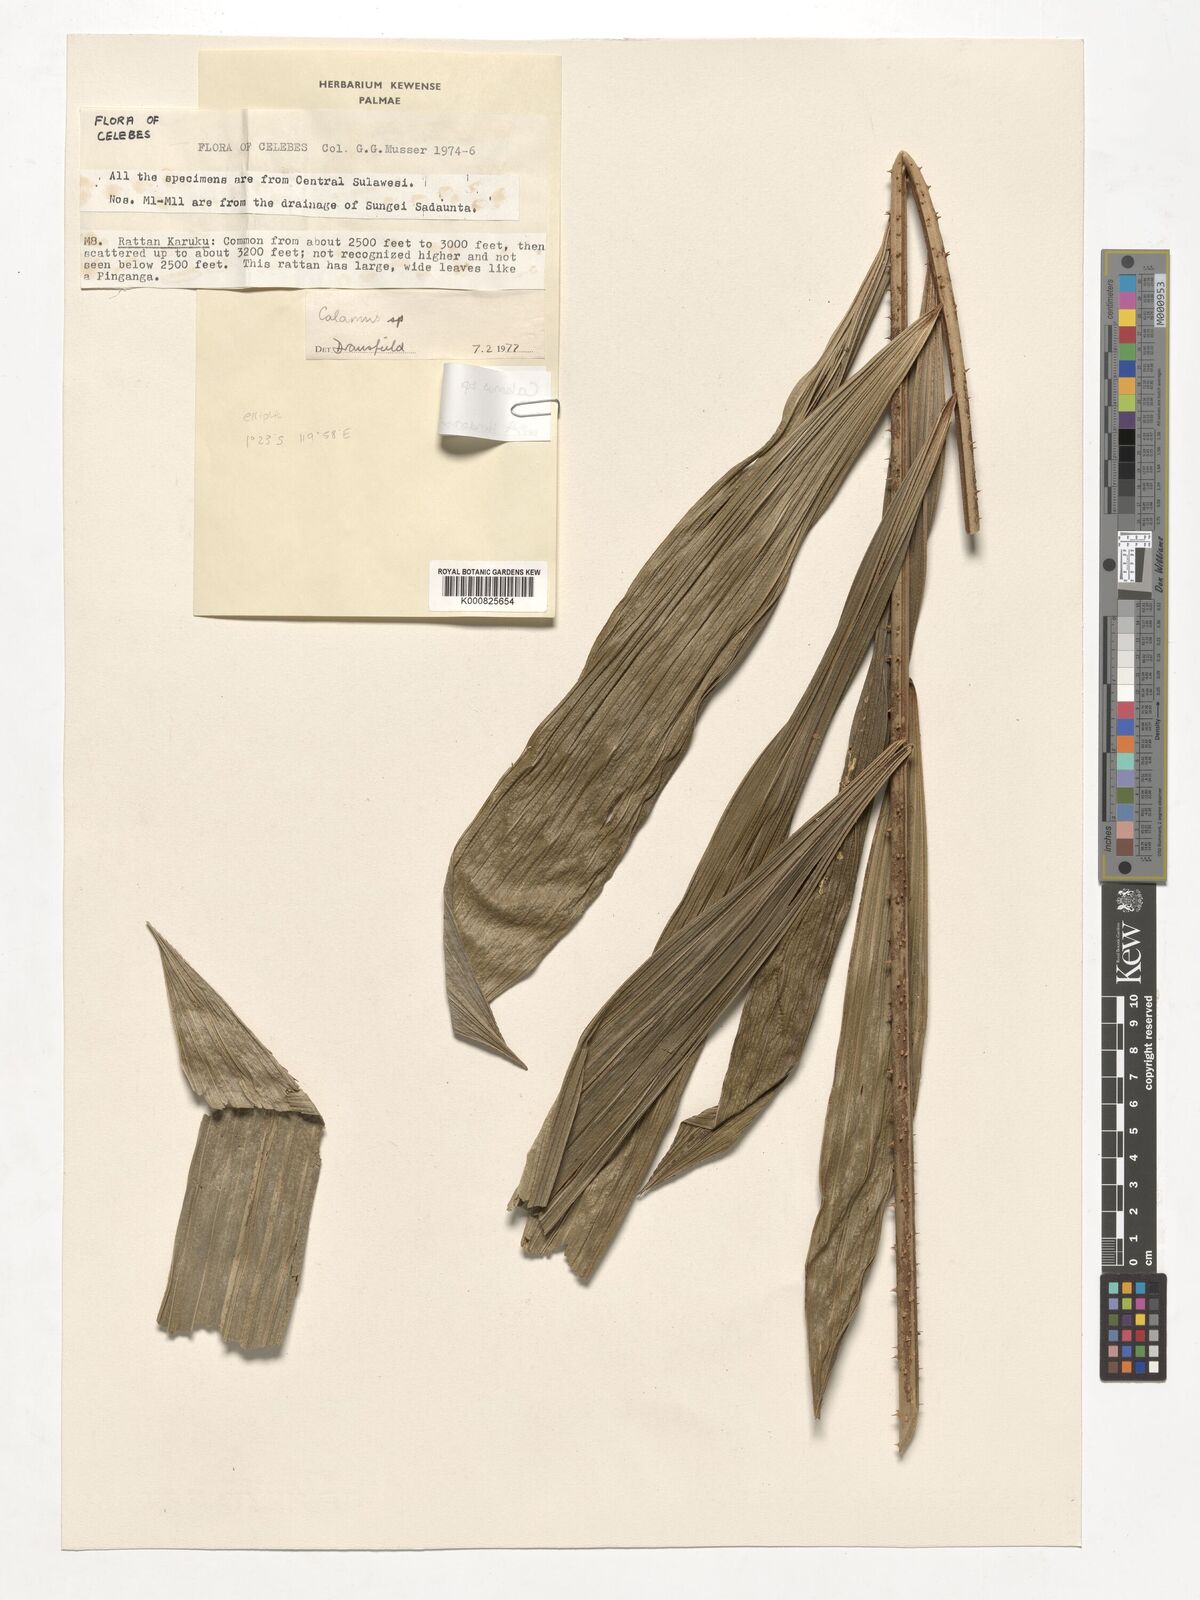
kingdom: Plantae
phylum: Tracheophyta
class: Liliopsida
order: Arecales
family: Arecaceae
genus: Calamus
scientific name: Calamus
